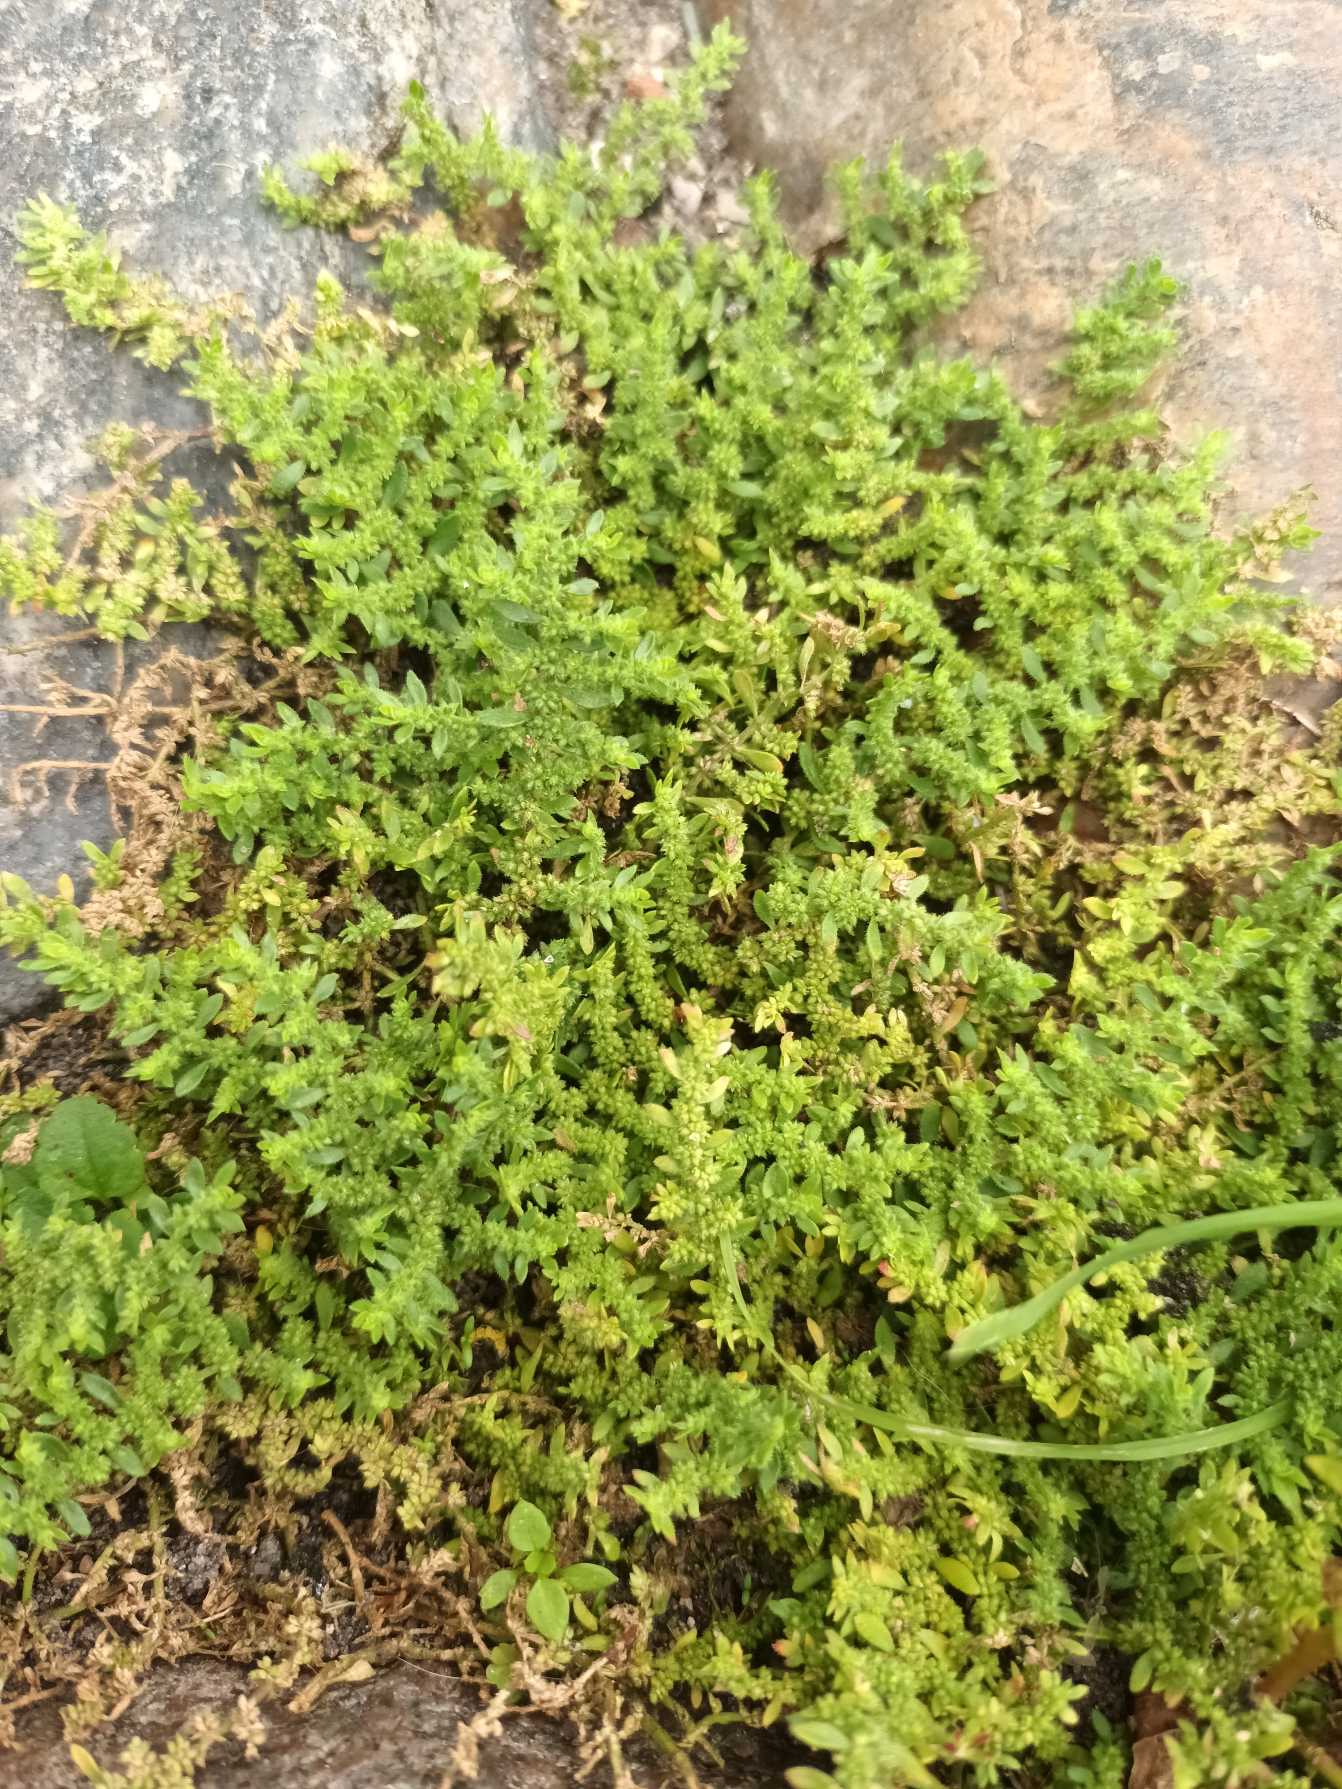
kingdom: Plantae
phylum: Tracheophyta
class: Magnoliopsida
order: Caryophyllales
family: Caryophyllaceae
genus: Herniaria
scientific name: Herniaria glabra
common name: Brudurt
